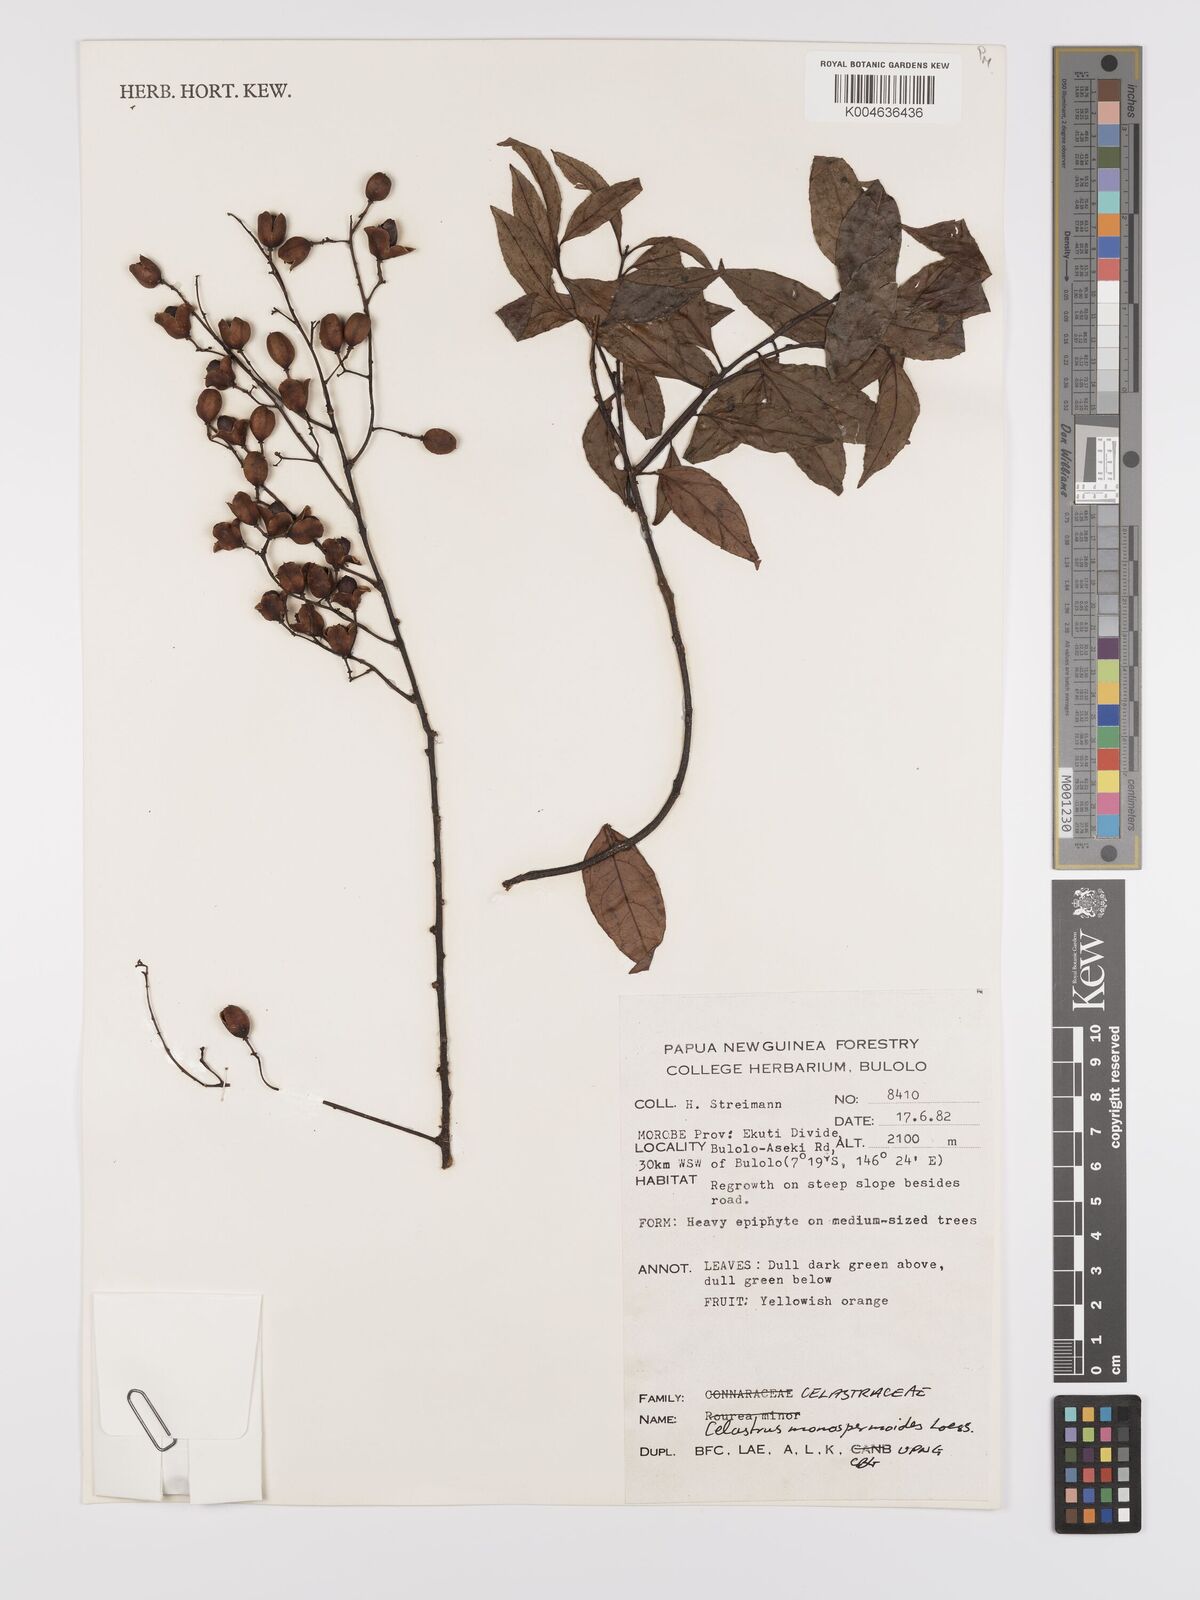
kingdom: Plantae
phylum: Tracheophyta
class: Magnoliopsida
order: Celastrales
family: Celastraceae
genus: Celastrus
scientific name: Celastrus monospermoides
